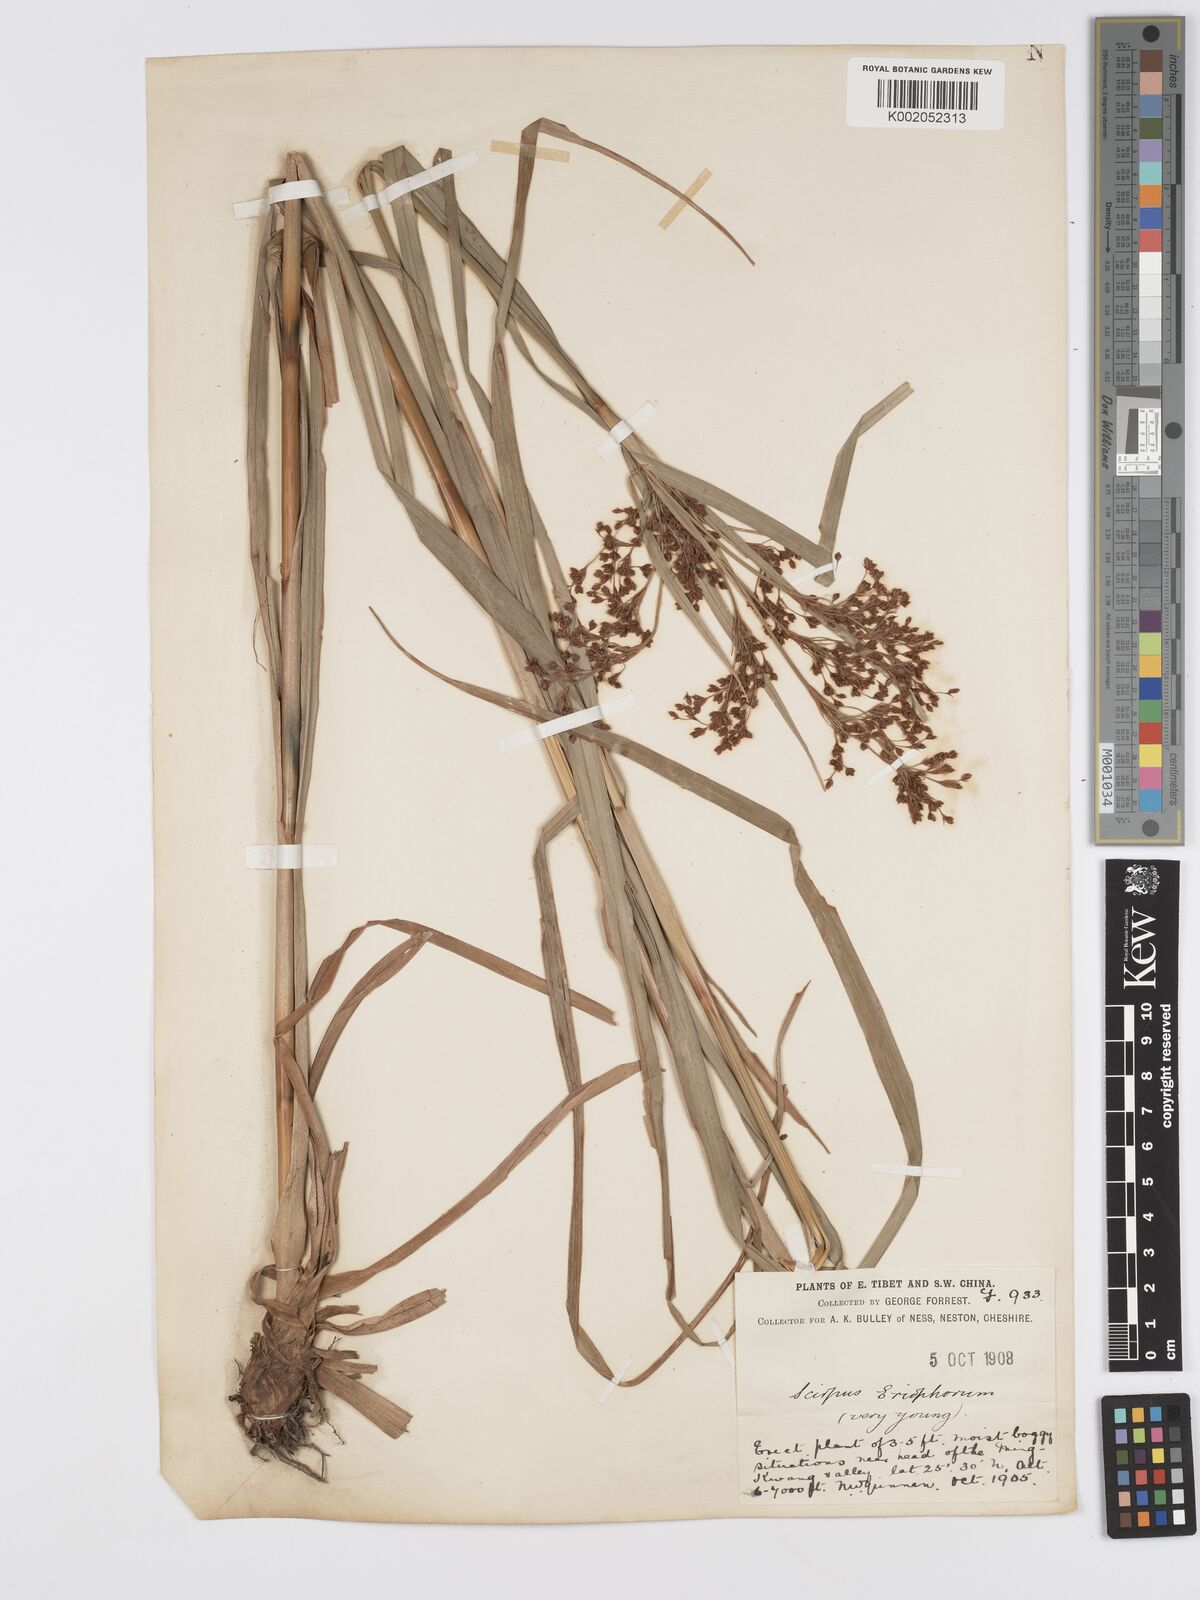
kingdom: Plantae
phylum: Tracheophyta
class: Liliopsida
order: Poales
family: Cyperaceae
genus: Scirpus
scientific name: Scirpus cyperinus
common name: Black-sheathed bulrush
